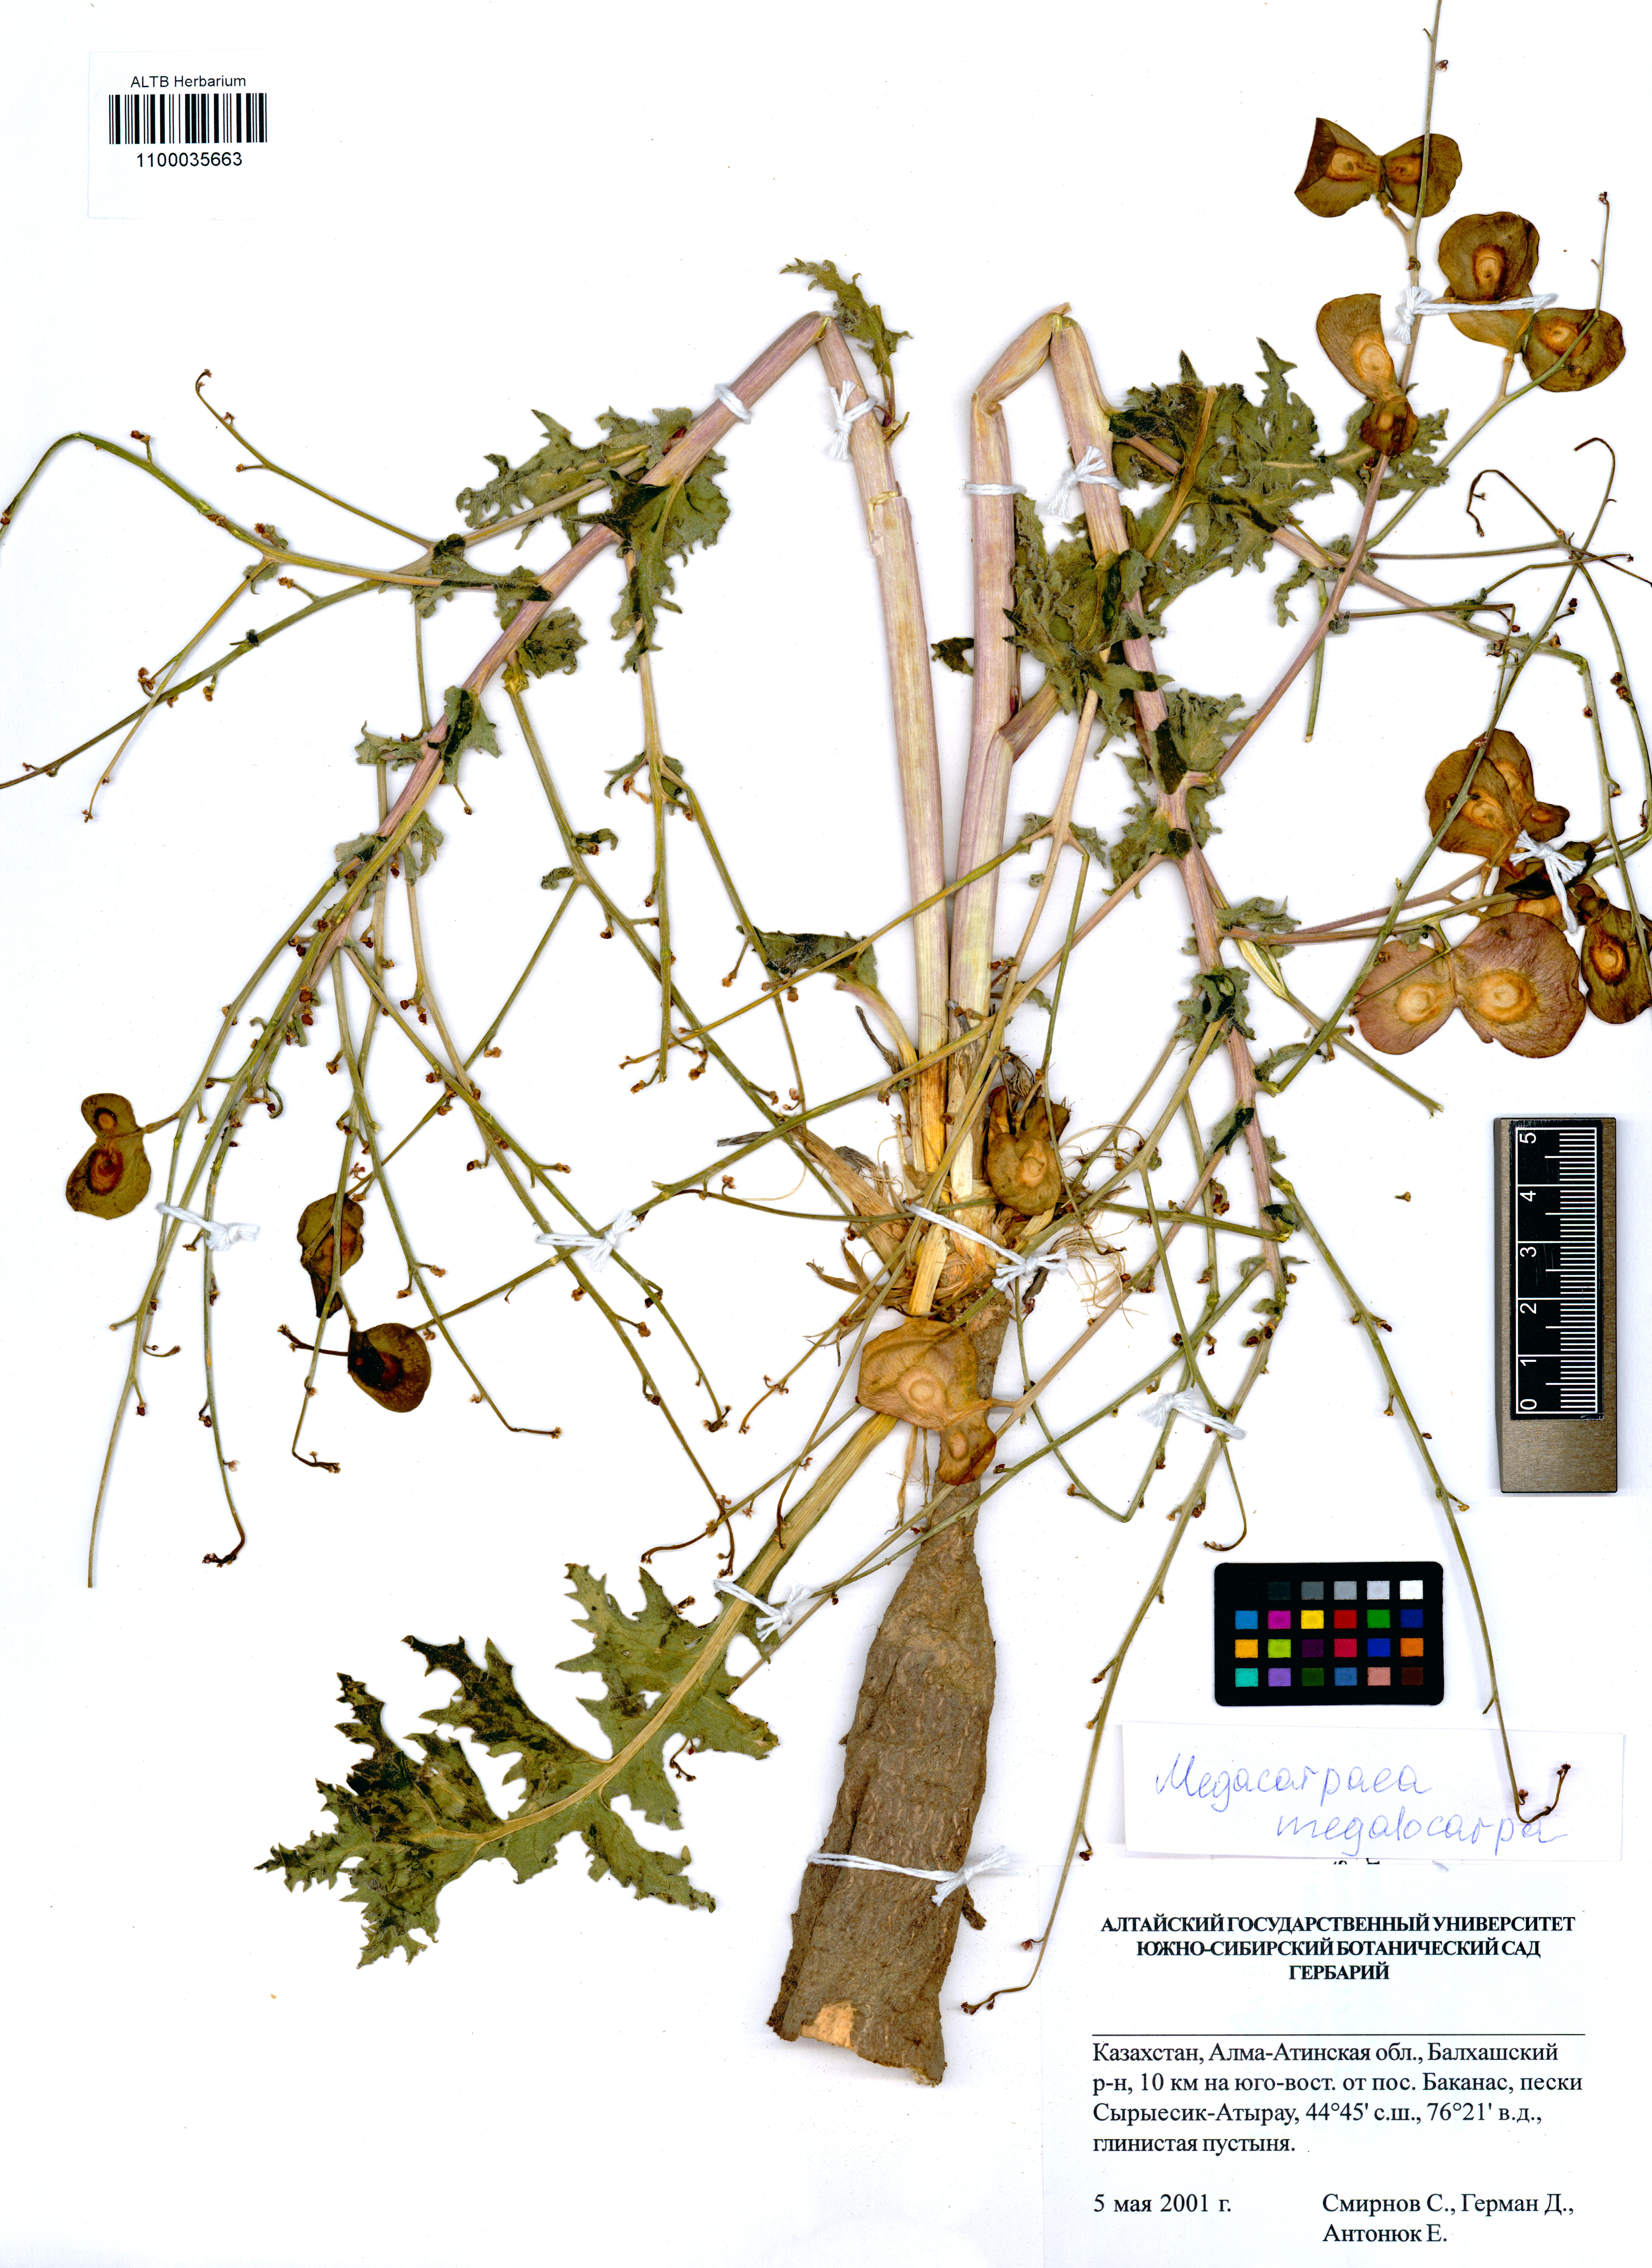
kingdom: Plantae
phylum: Tracheophyta
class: Magnoliopsida
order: Brassicales
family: Brassicaceae
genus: Megacarpaea
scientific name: Megacarpaea megalocarpa
